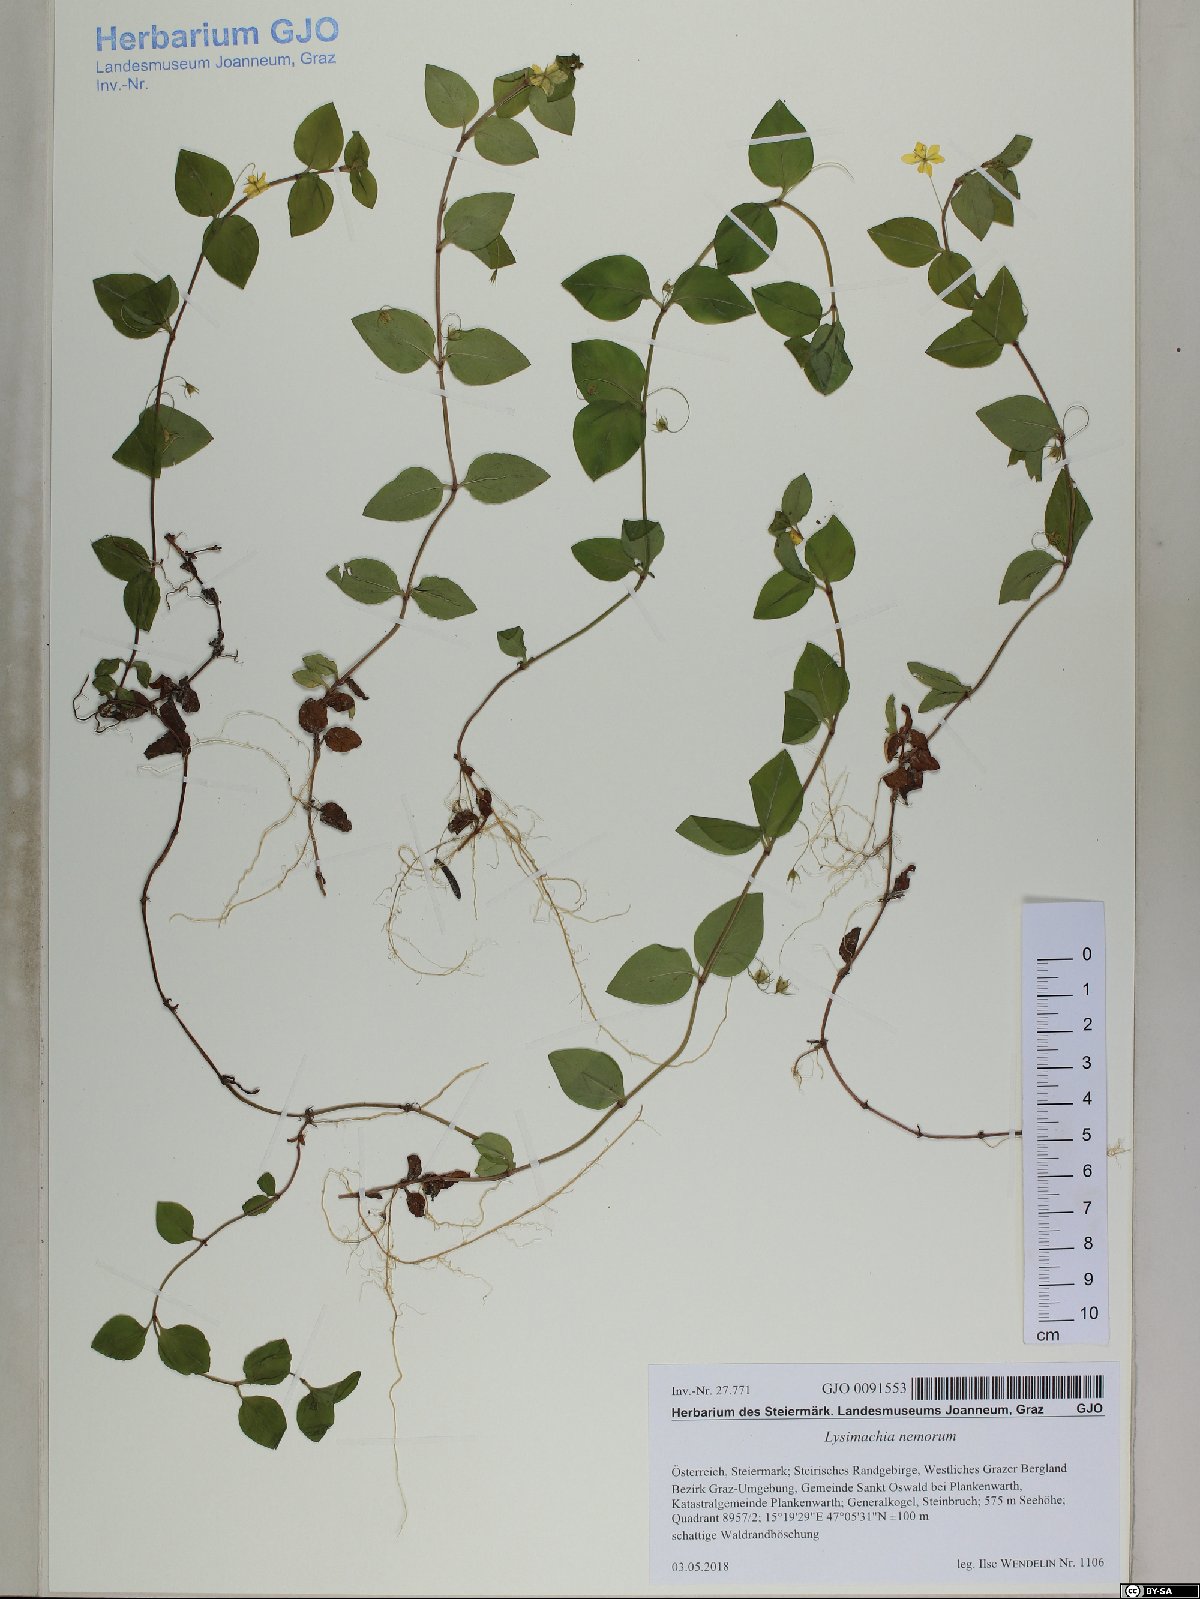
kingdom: Plantae
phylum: Tracheophyta
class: Magnoliopsida
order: Ericales
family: Primulaceae
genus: Lysimachia
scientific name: Lysimachia nemorum
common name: Yellow pimpernel
